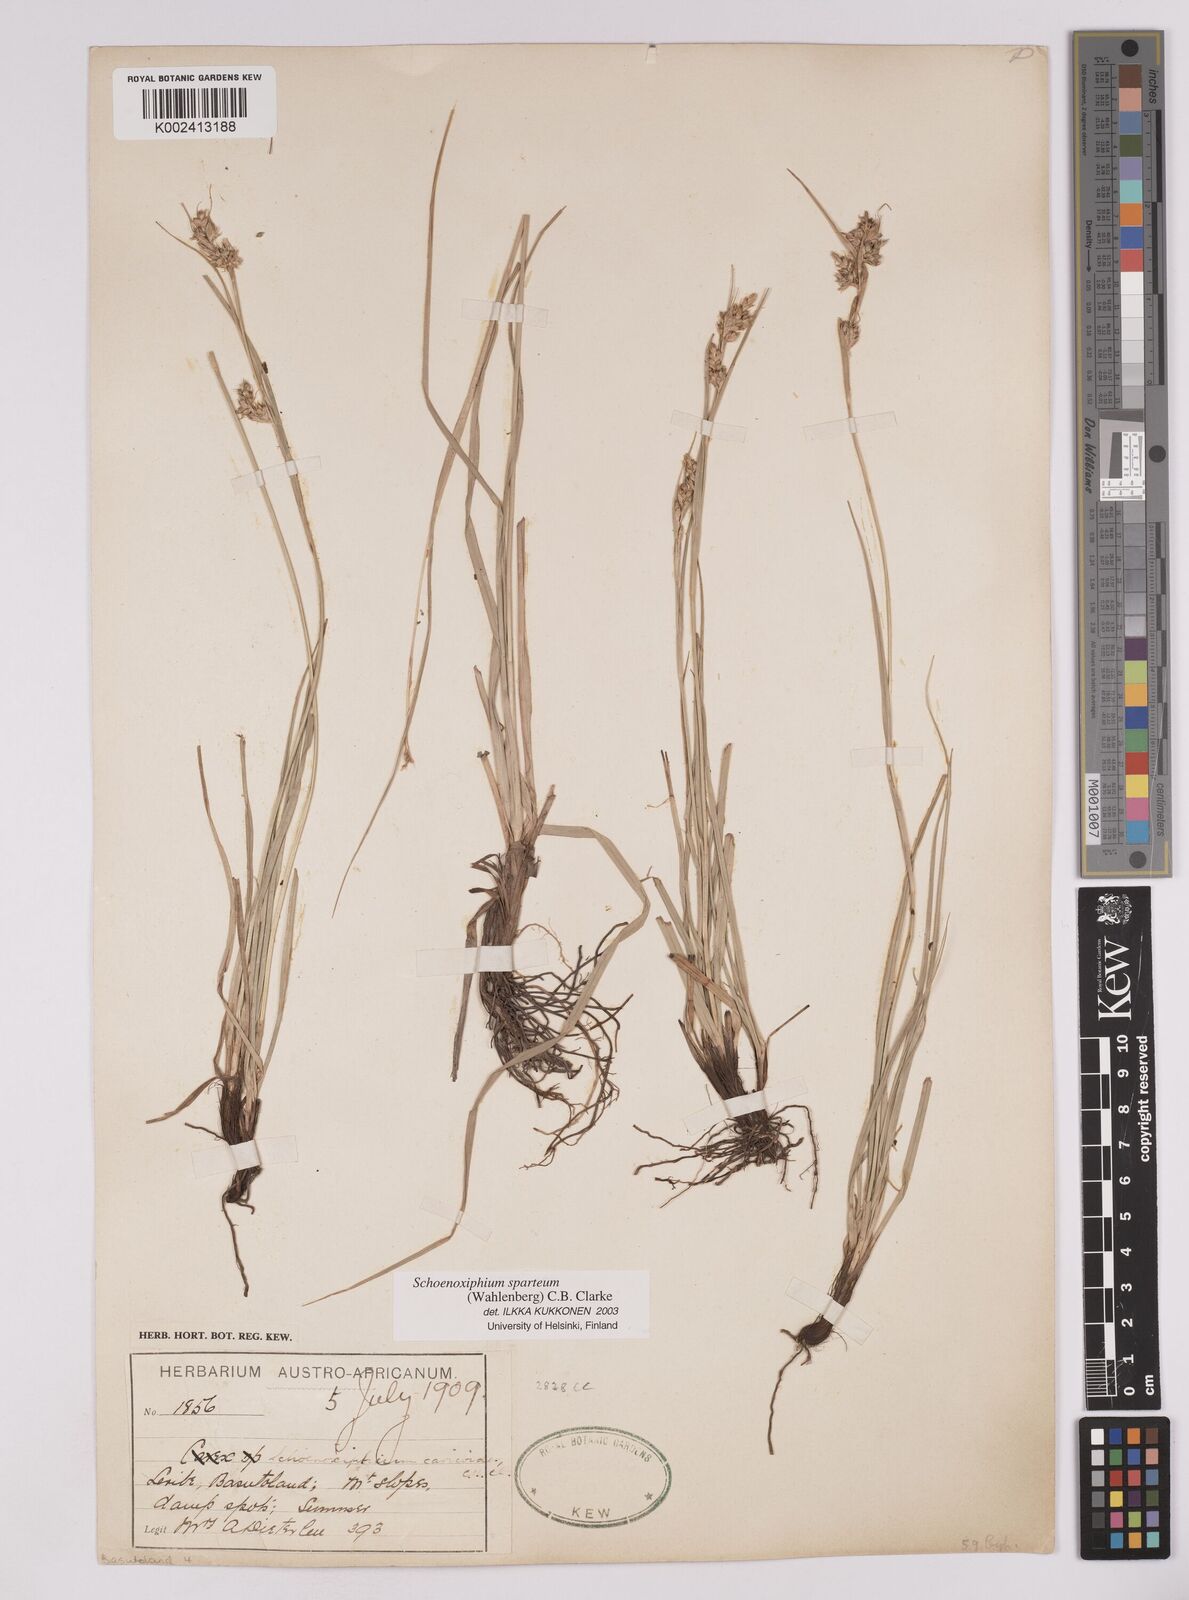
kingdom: Plantae
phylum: Tracheophyta
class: Liliopsida
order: Poales
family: Cyperaceae
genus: Carex
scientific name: Carex spartea
